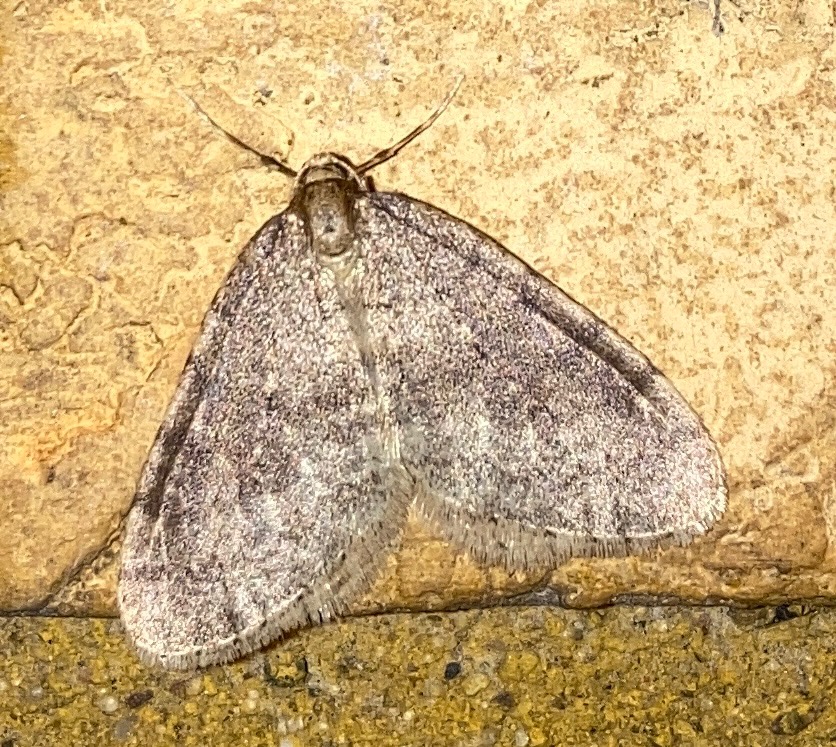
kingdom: Animalia
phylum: Arthropoda
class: Insecta
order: Lepidoptera
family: Geometridae
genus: Operophtera
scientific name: Operophtera brumata
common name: Lille frostmåler
